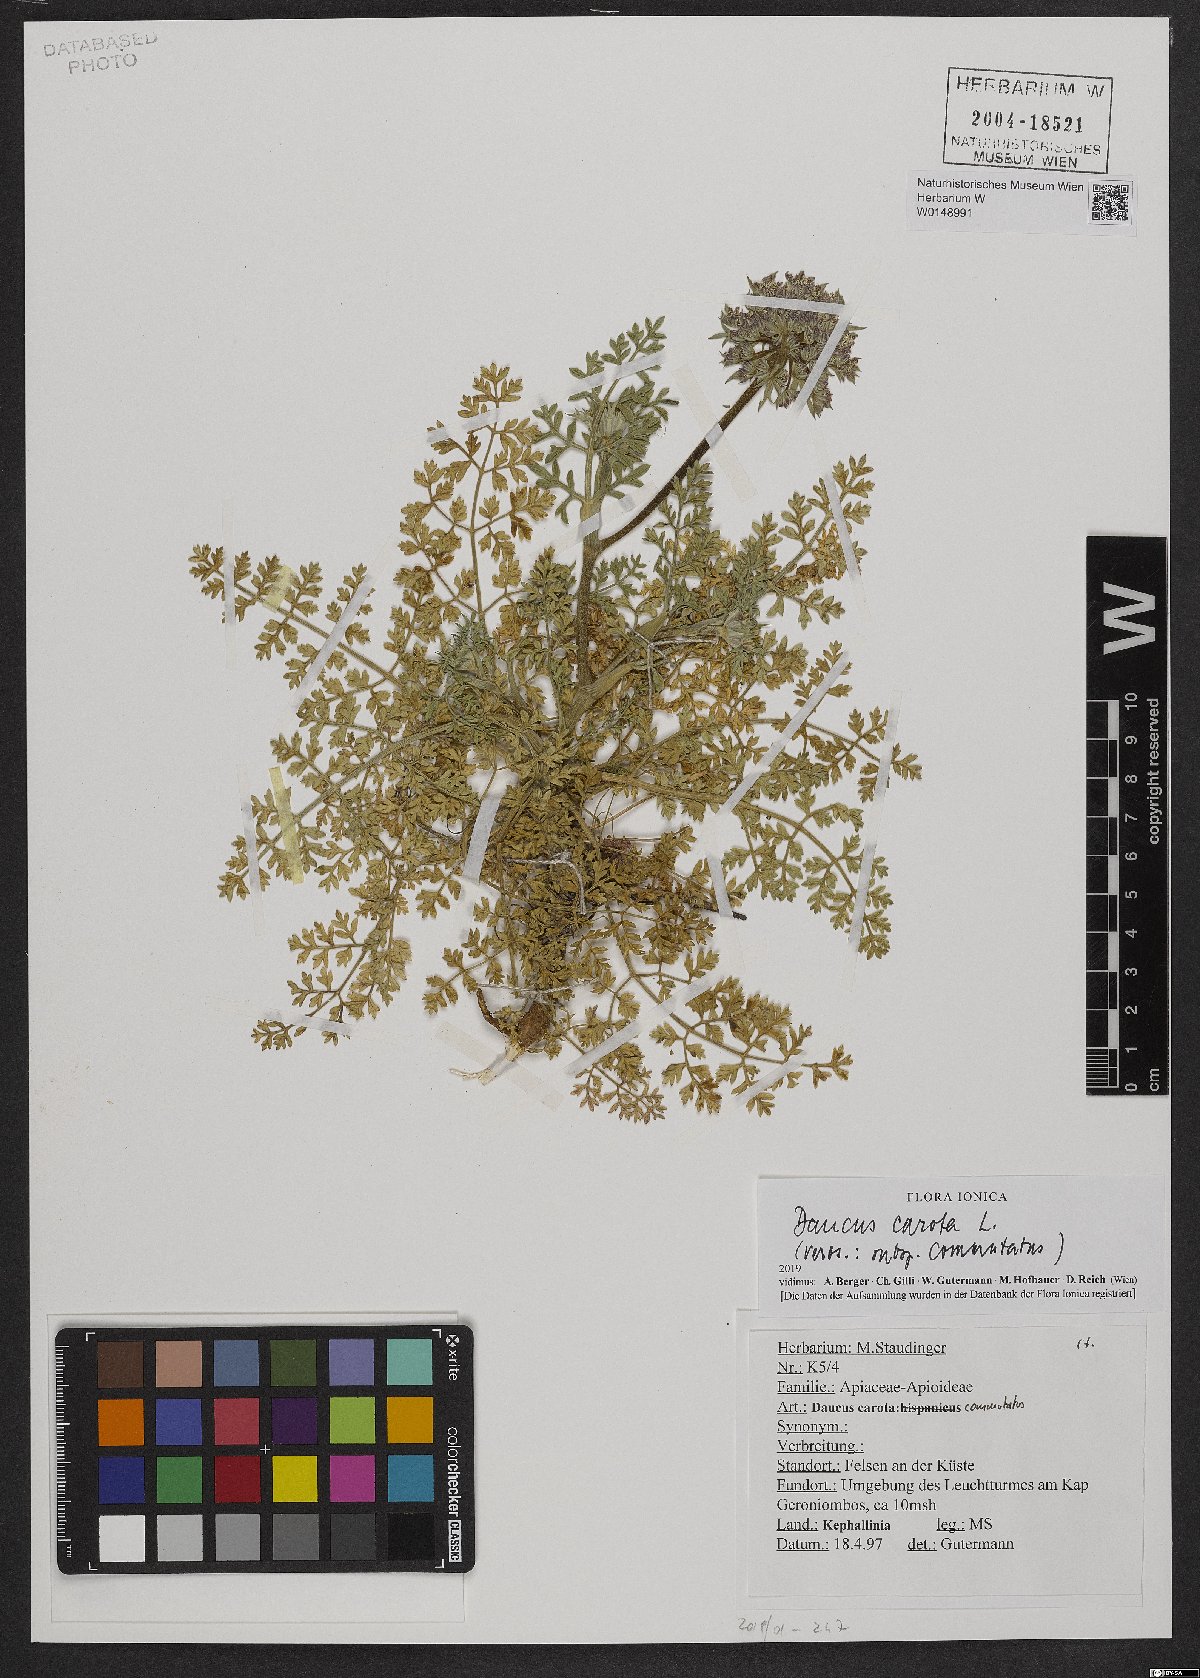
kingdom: Plantae
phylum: Tracheophyta
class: Magnoliopsida
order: Apiales
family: Apiaceae
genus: Daucus
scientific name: Daucus carota
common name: Wild carrot
